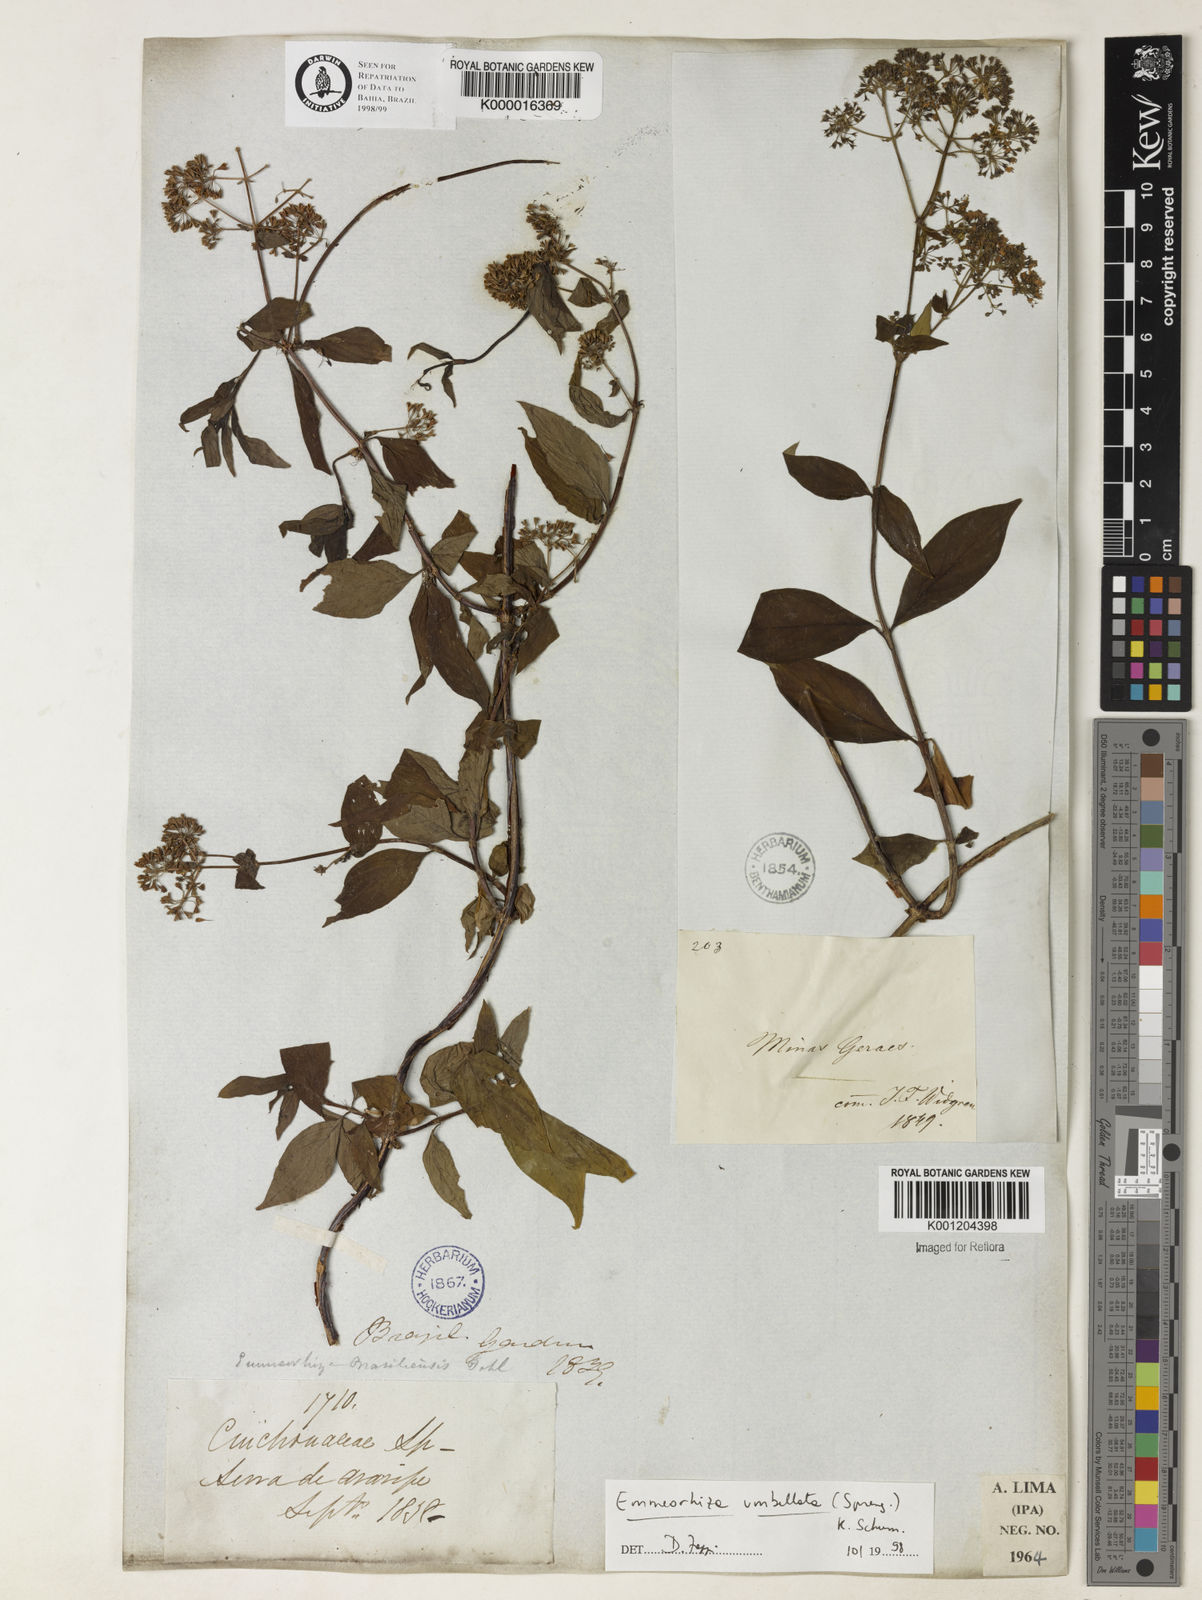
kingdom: Plantae
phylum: Tracheophyta
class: Magnoliopsida
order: Gentianales
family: Rubiaceae
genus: Emmeorhiza
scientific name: Emmeorhiza umbellata
